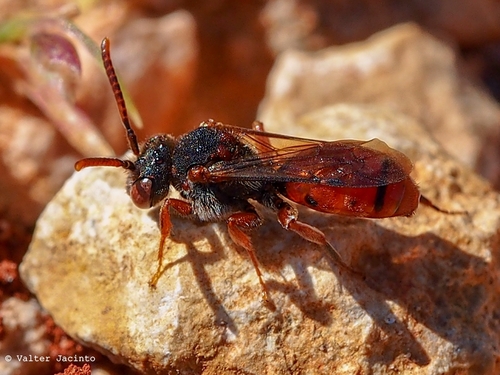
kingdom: Animalia
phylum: Arthropoda
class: Insecta
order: Hymenoptera
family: Apidae
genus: Nomada
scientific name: Nomada
